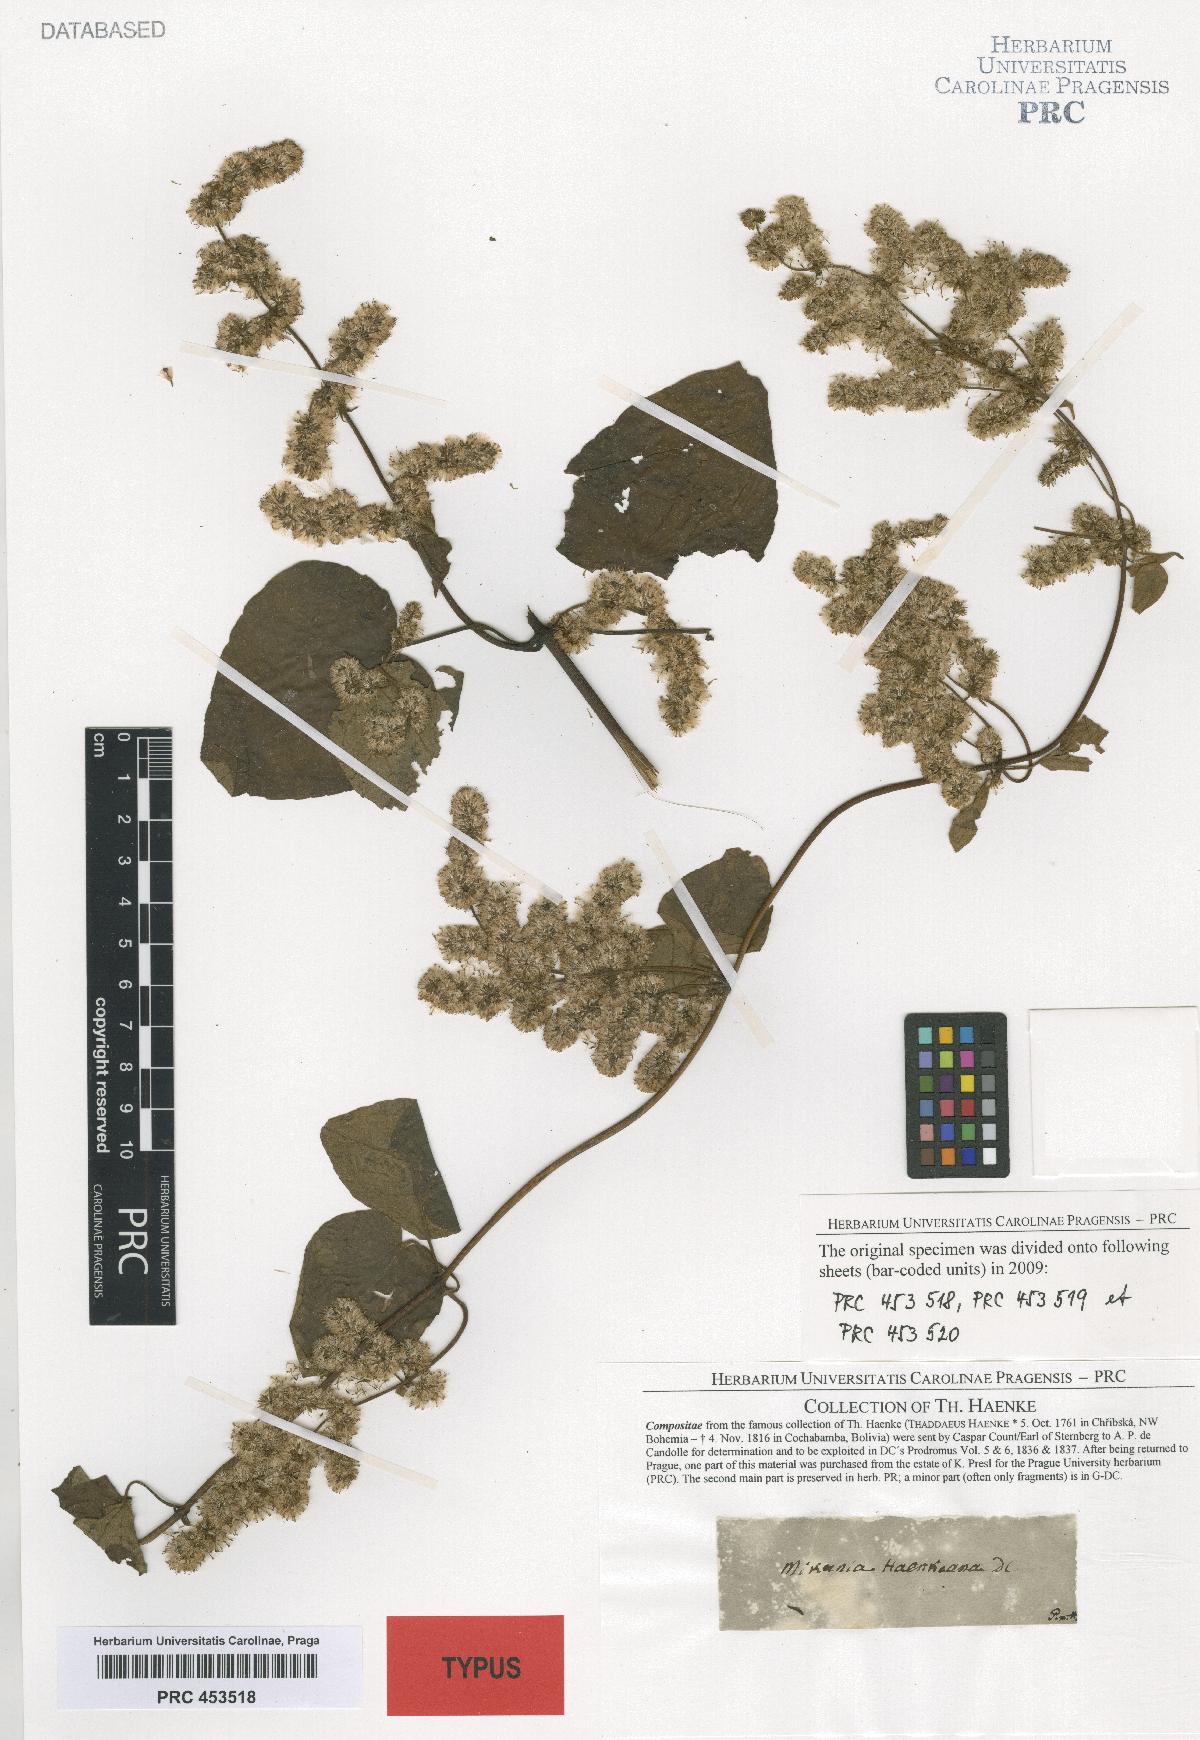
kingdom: Plantae
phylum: Tracheophyta
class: Magnoliopsida
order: Asterales
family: Asteraceae
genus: Mikania
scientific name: Mikania haenkeana
